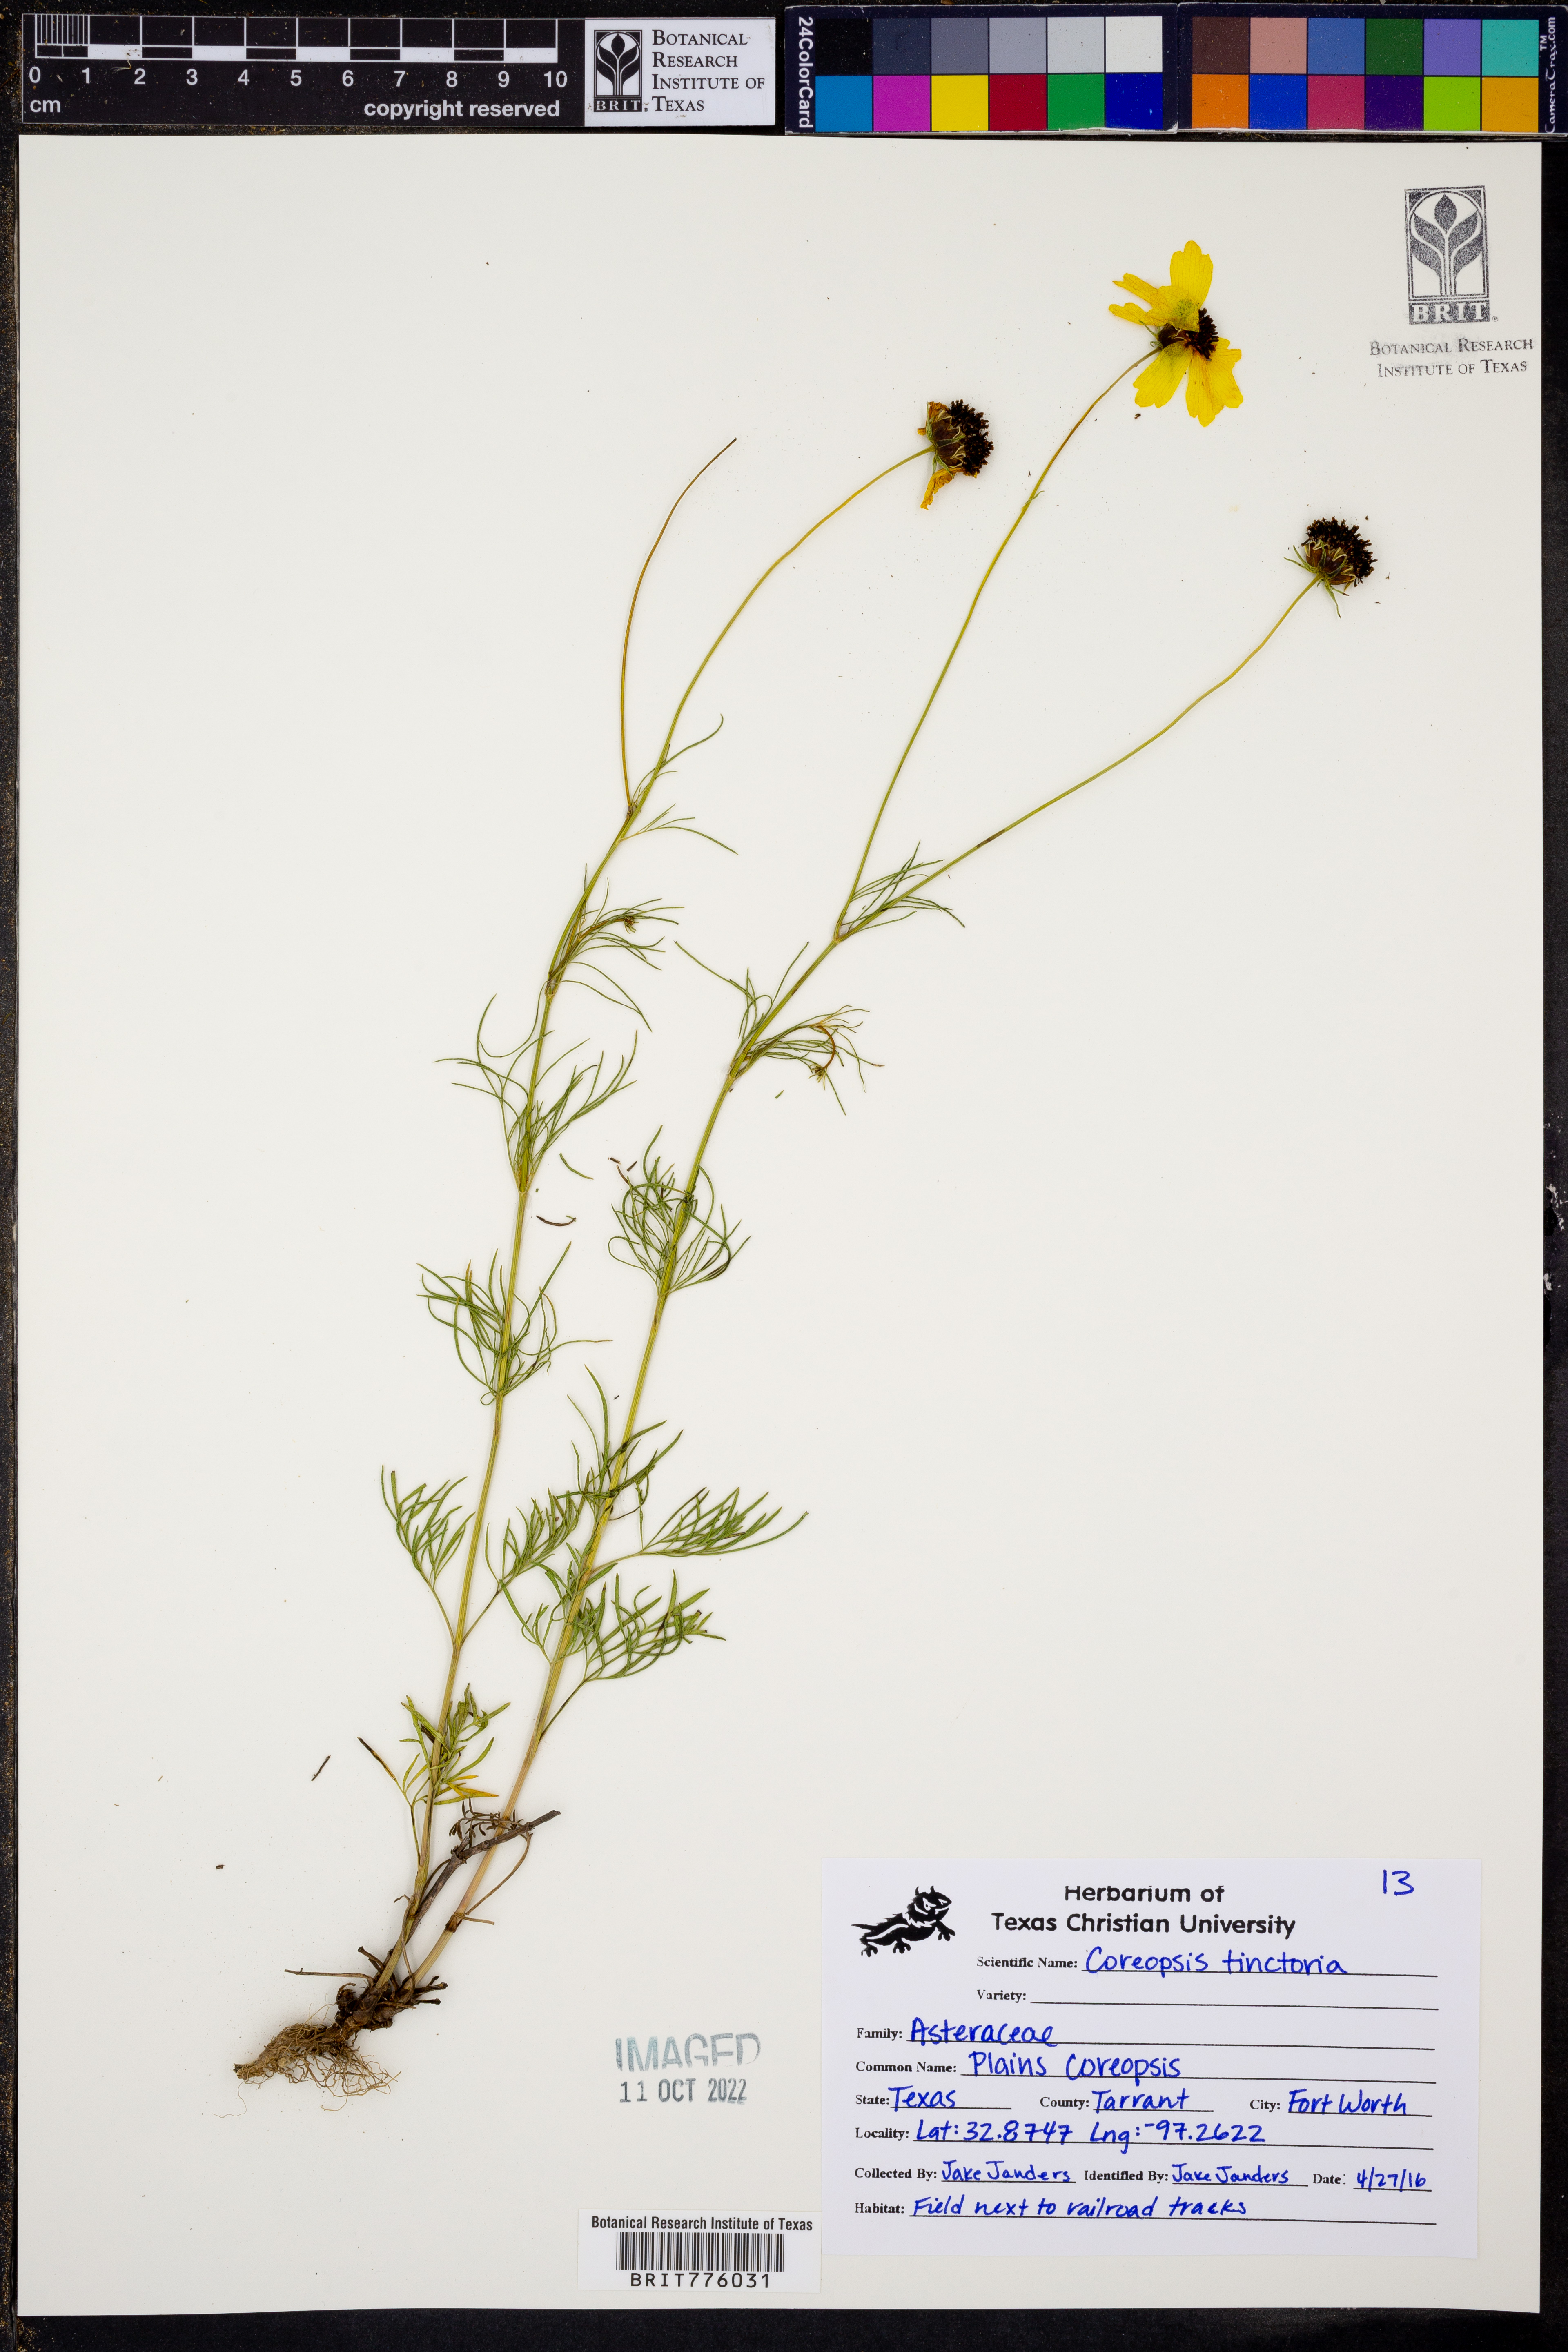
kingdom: Plantae
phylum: Tracheophyta
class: Magnoliopsida
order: Asterales
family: Asteraceae
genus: Coreopsis
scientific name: Coreopsis tinctoria
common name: Garden tickseed
